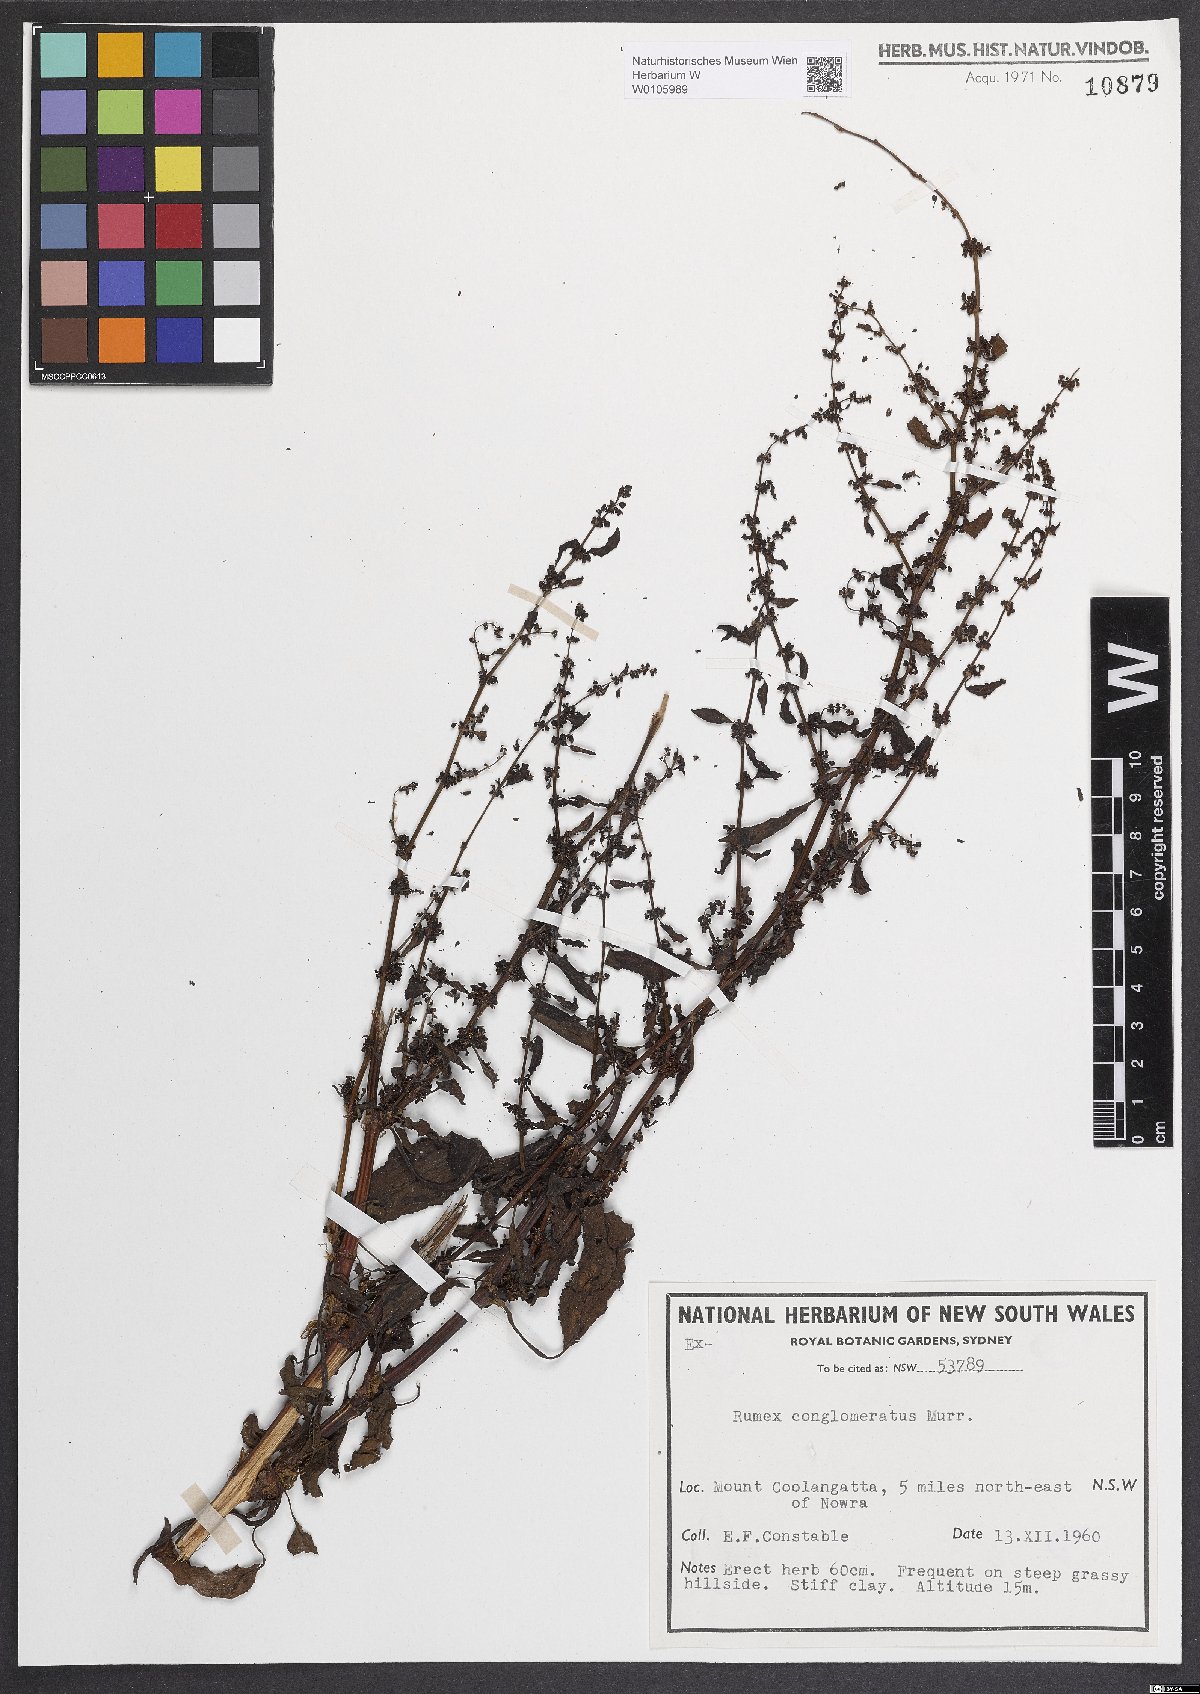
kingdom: Plantae
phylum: Tracheophyta
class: Magnoliopsida
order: Caryophyllales
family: Polygonaceae
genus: Rumex
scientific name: Rumex conglomeratus
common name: Clustered dock
